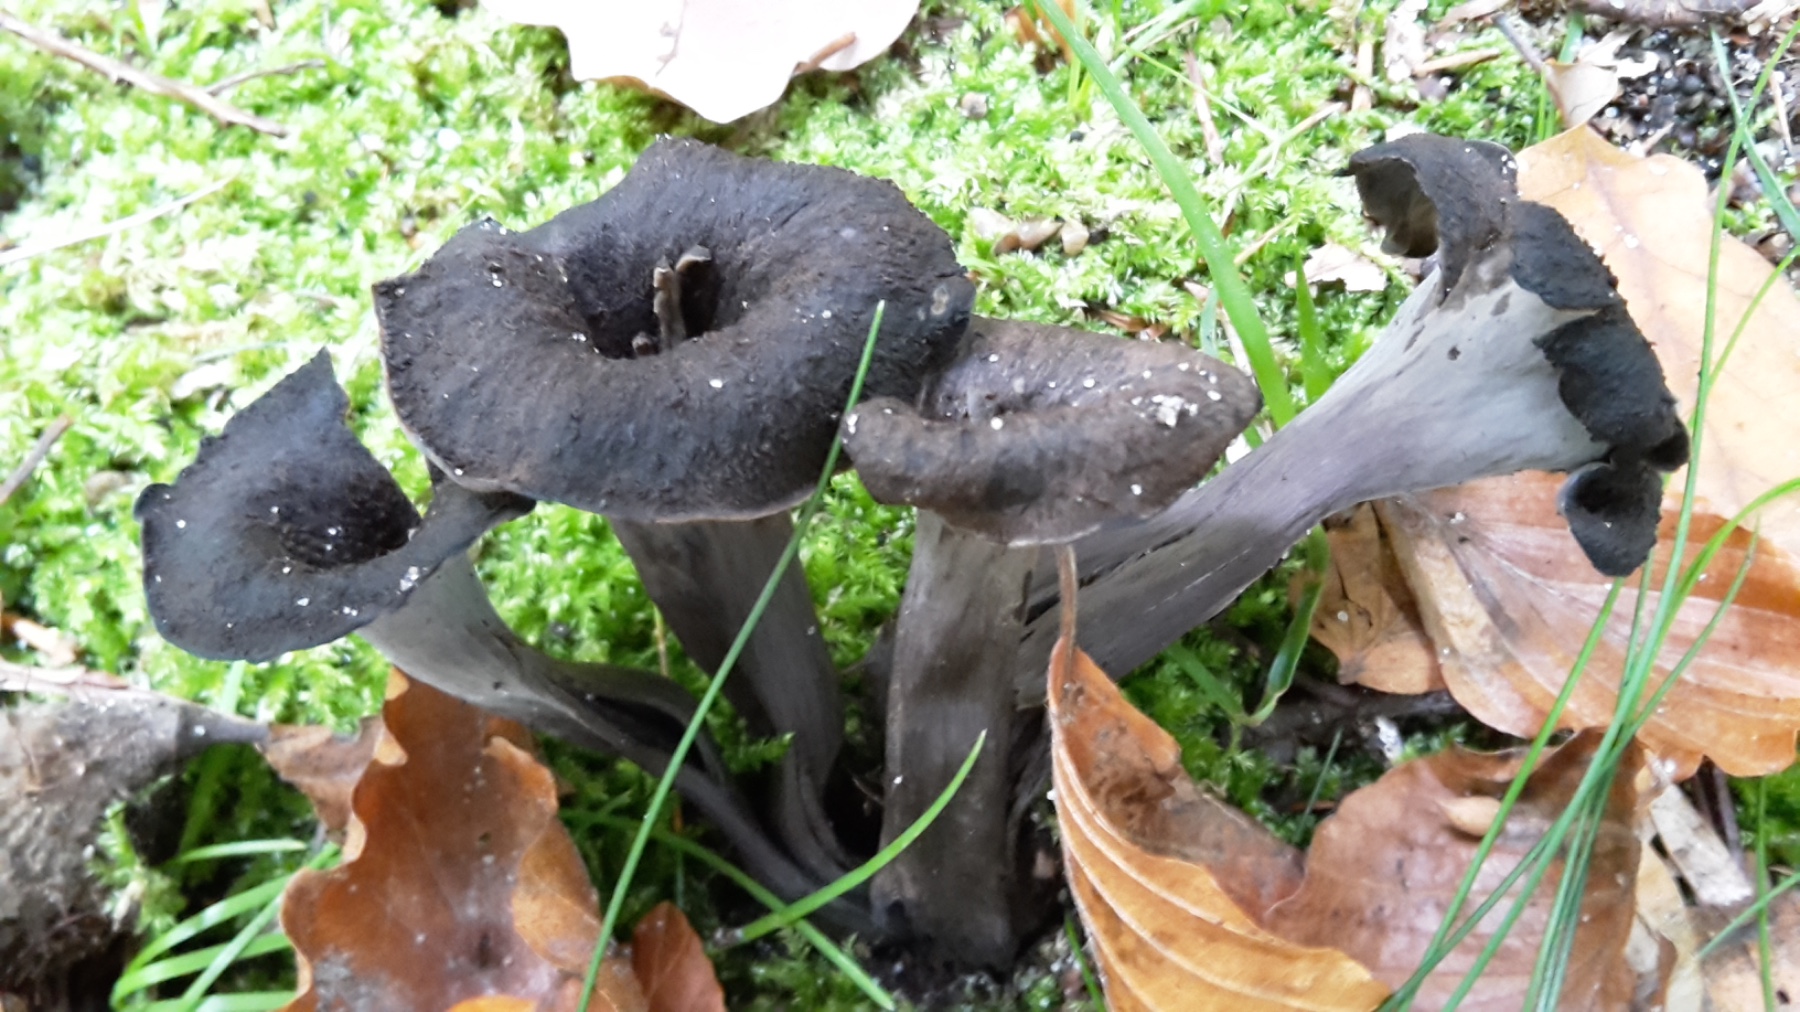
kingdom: Fungi
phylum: Basidiomycota
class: Agaricomycetes
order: Cantharellales
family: Hydnaceae
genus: Craterellus
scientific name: Craterellus cornucopioides
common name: trompetsvamp
